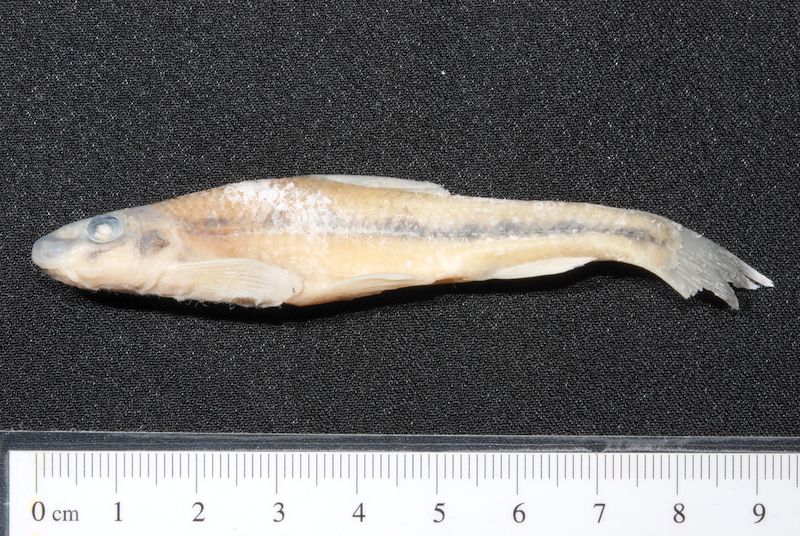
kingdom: Animalia
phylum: Chordata
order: Cypriniformes
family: Cyprinidae
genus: Romanogobio
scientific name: Romanogobio belingi
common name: Northern whitefin gudgeon
